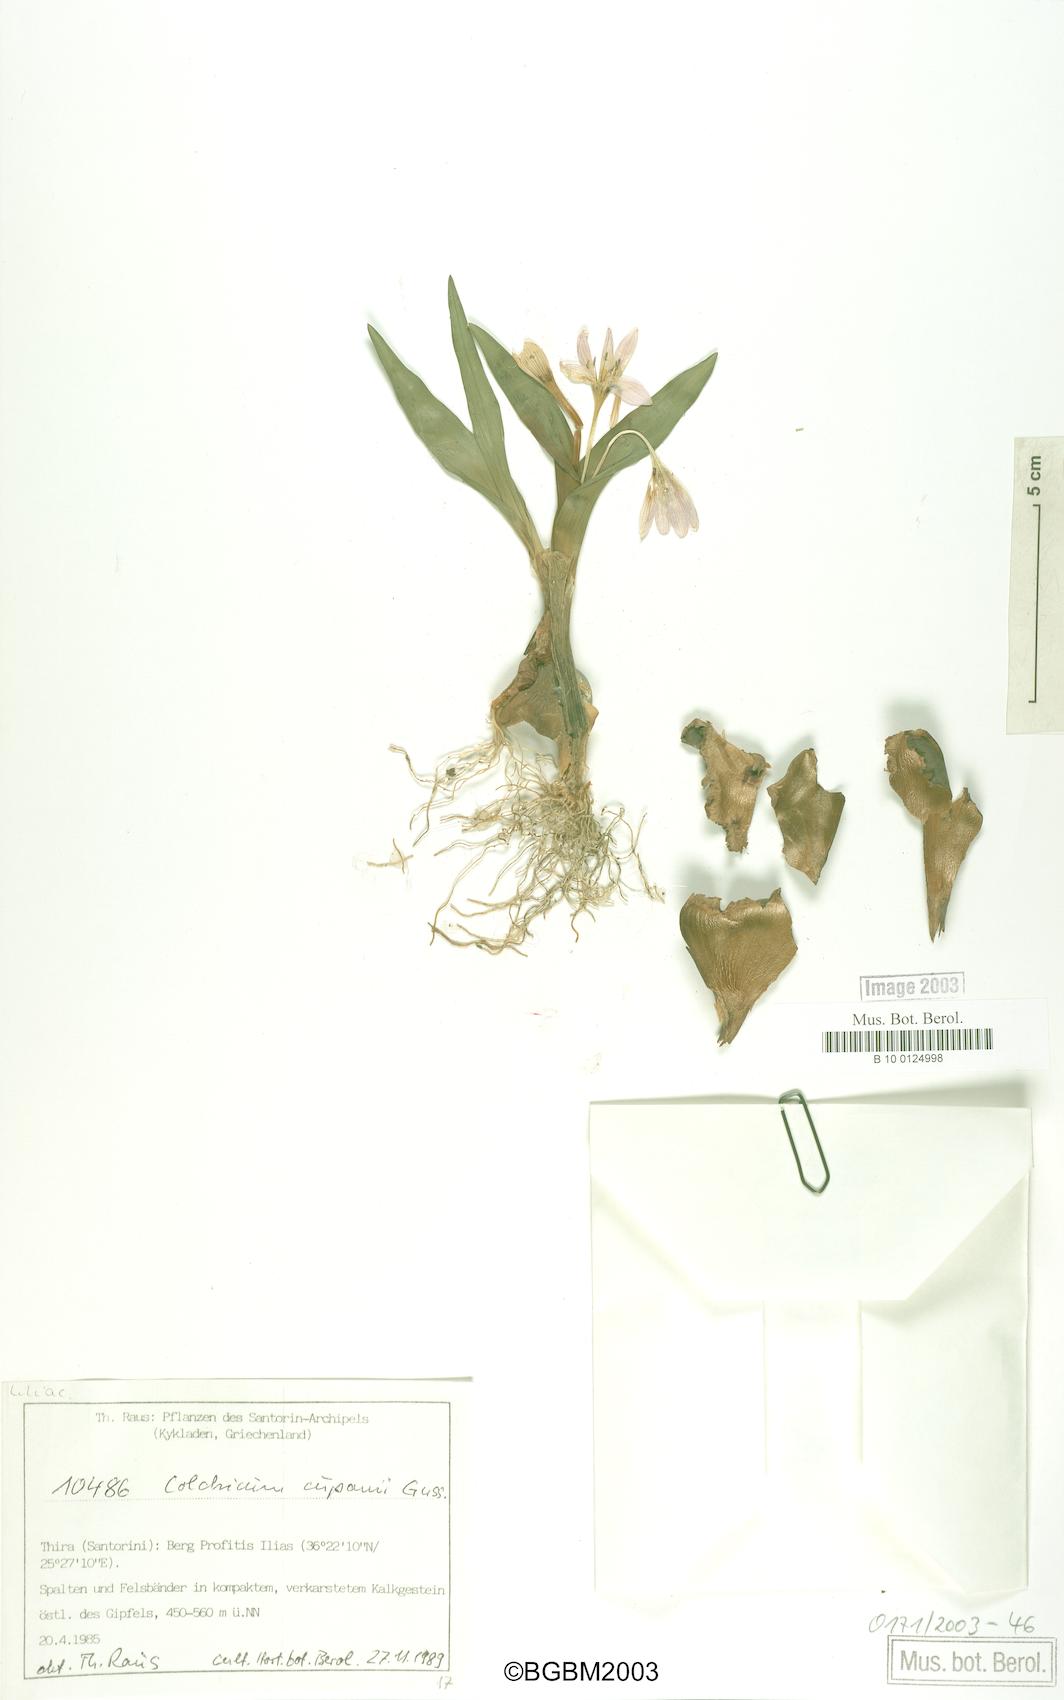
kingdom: Plantae
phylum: Tracheophyta
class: Liliopsida
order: Liliales
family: Colchicaceae
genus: Colchicum
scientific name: Colchicum cupanii
